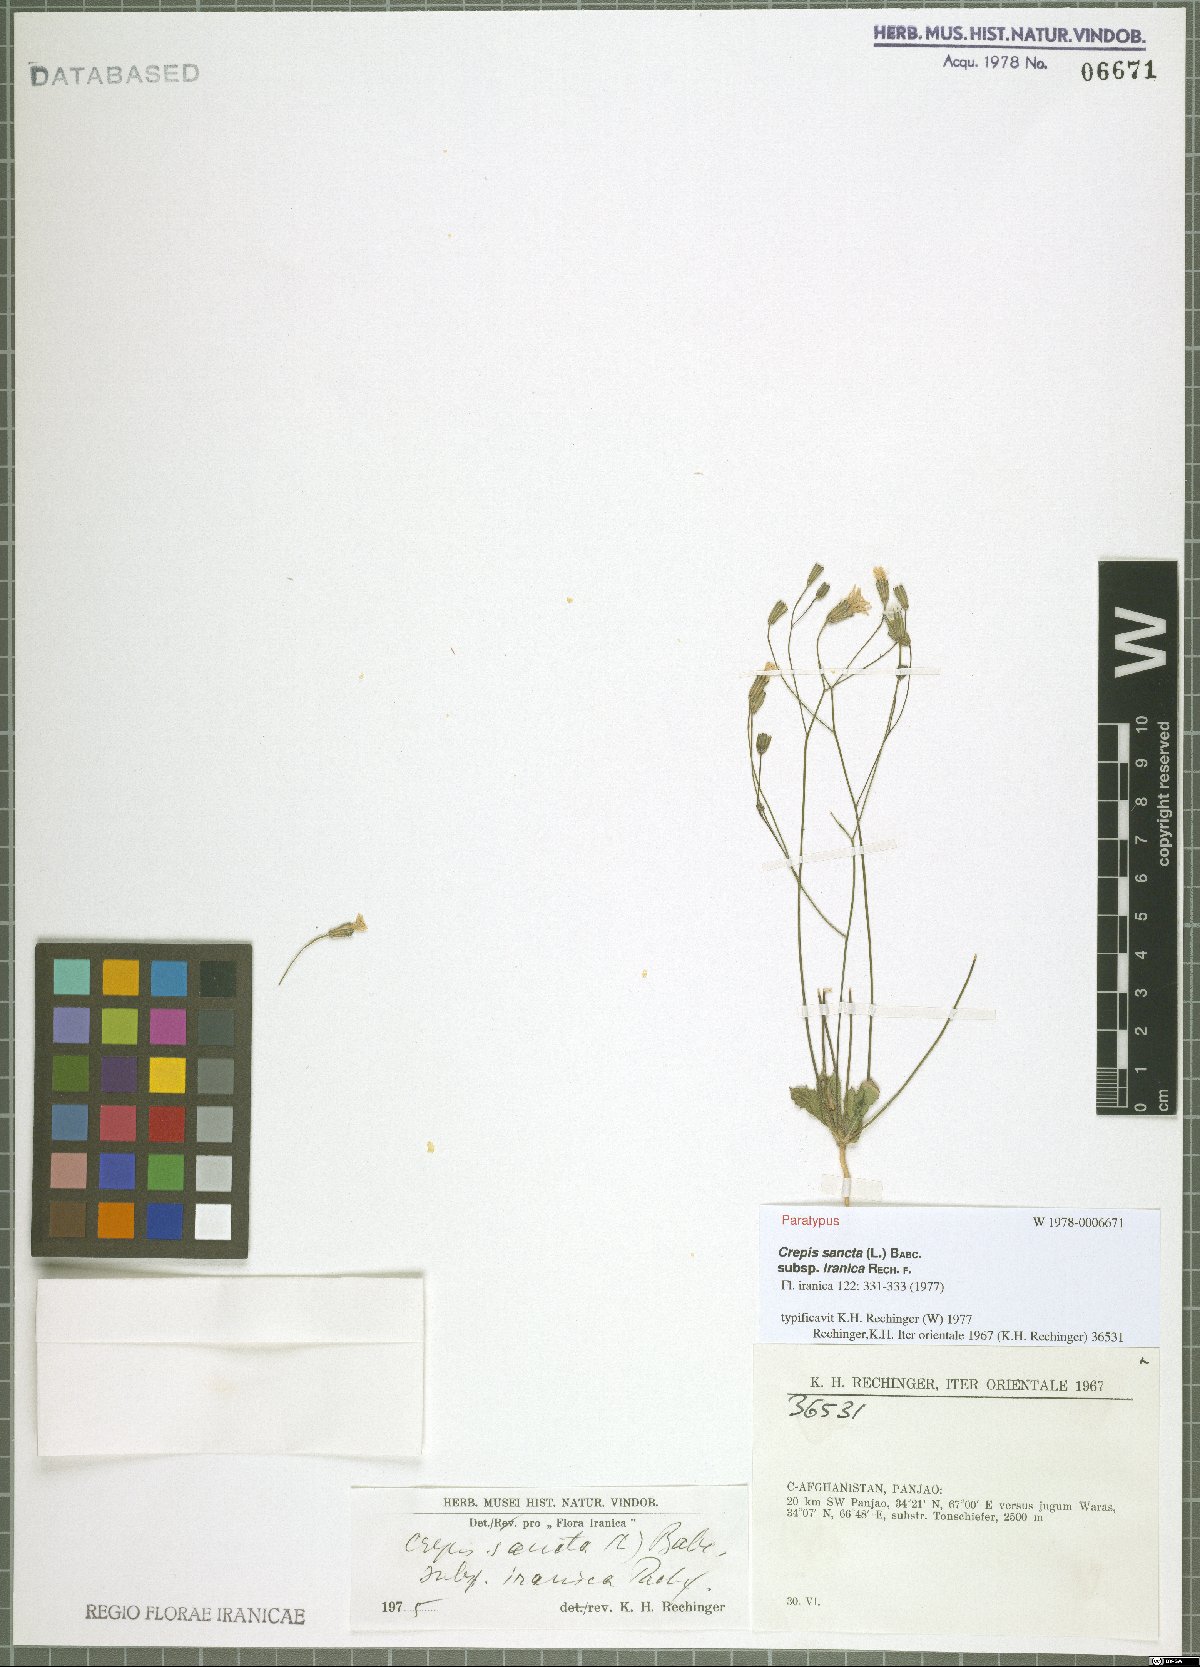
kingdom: Plantae
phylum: Tracheophyta
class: Magnoliopsida
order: Asterales
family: Asteraceae
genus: Crepis
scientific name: Crepis sancta
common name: Hawk's-beard
